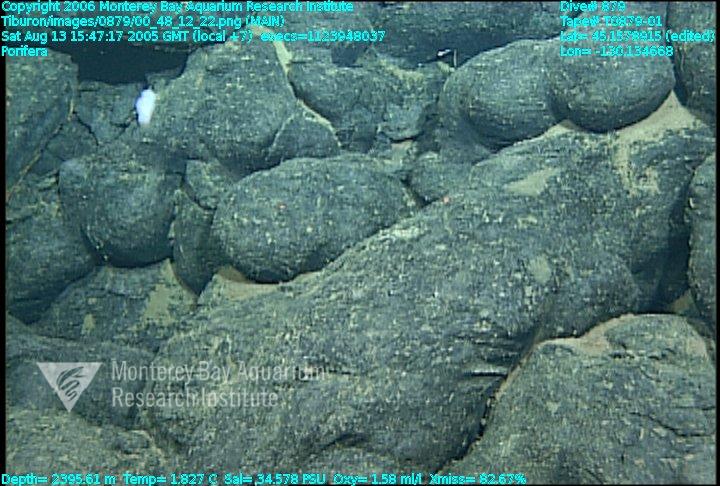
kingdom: Animalia
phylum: Porifera
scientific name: Porifera
